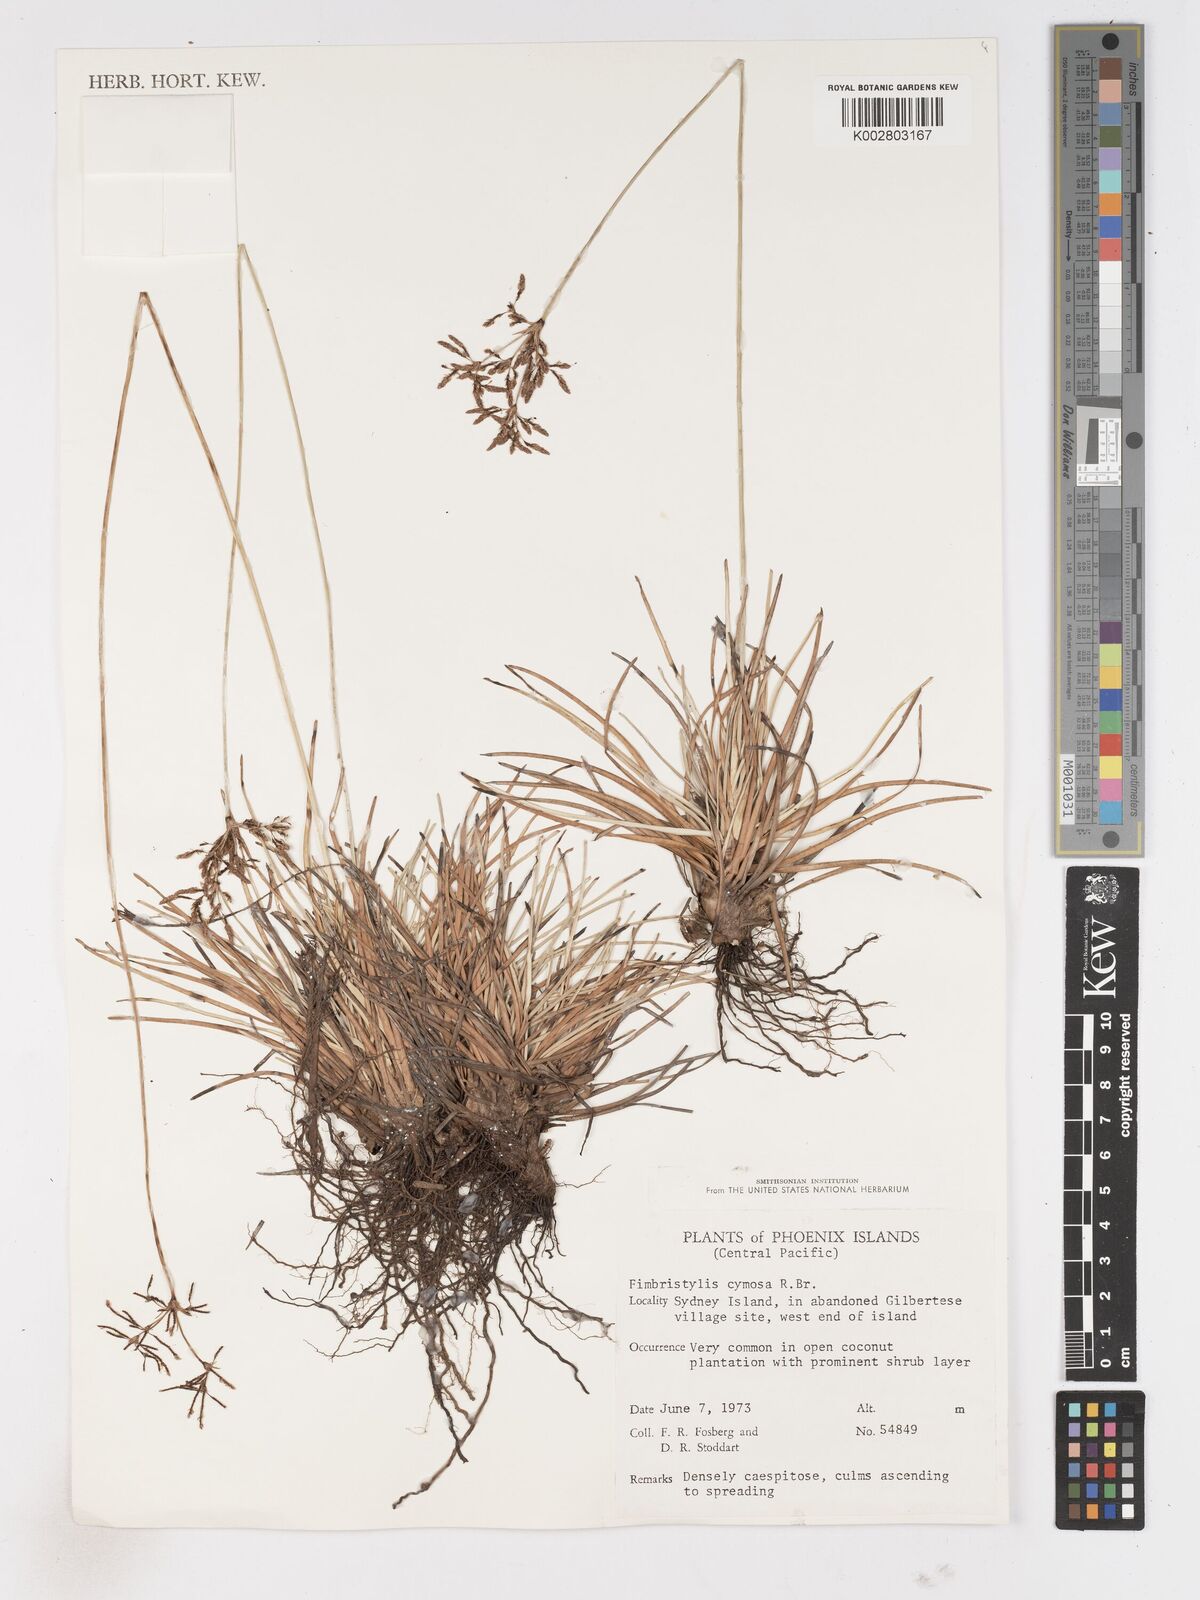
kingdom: Plantae
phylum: Tracheophyta
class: Liliopsida
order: Poales
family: Cyperaceae
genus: Fimbristylis
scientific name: Fimbristylis cymosa
